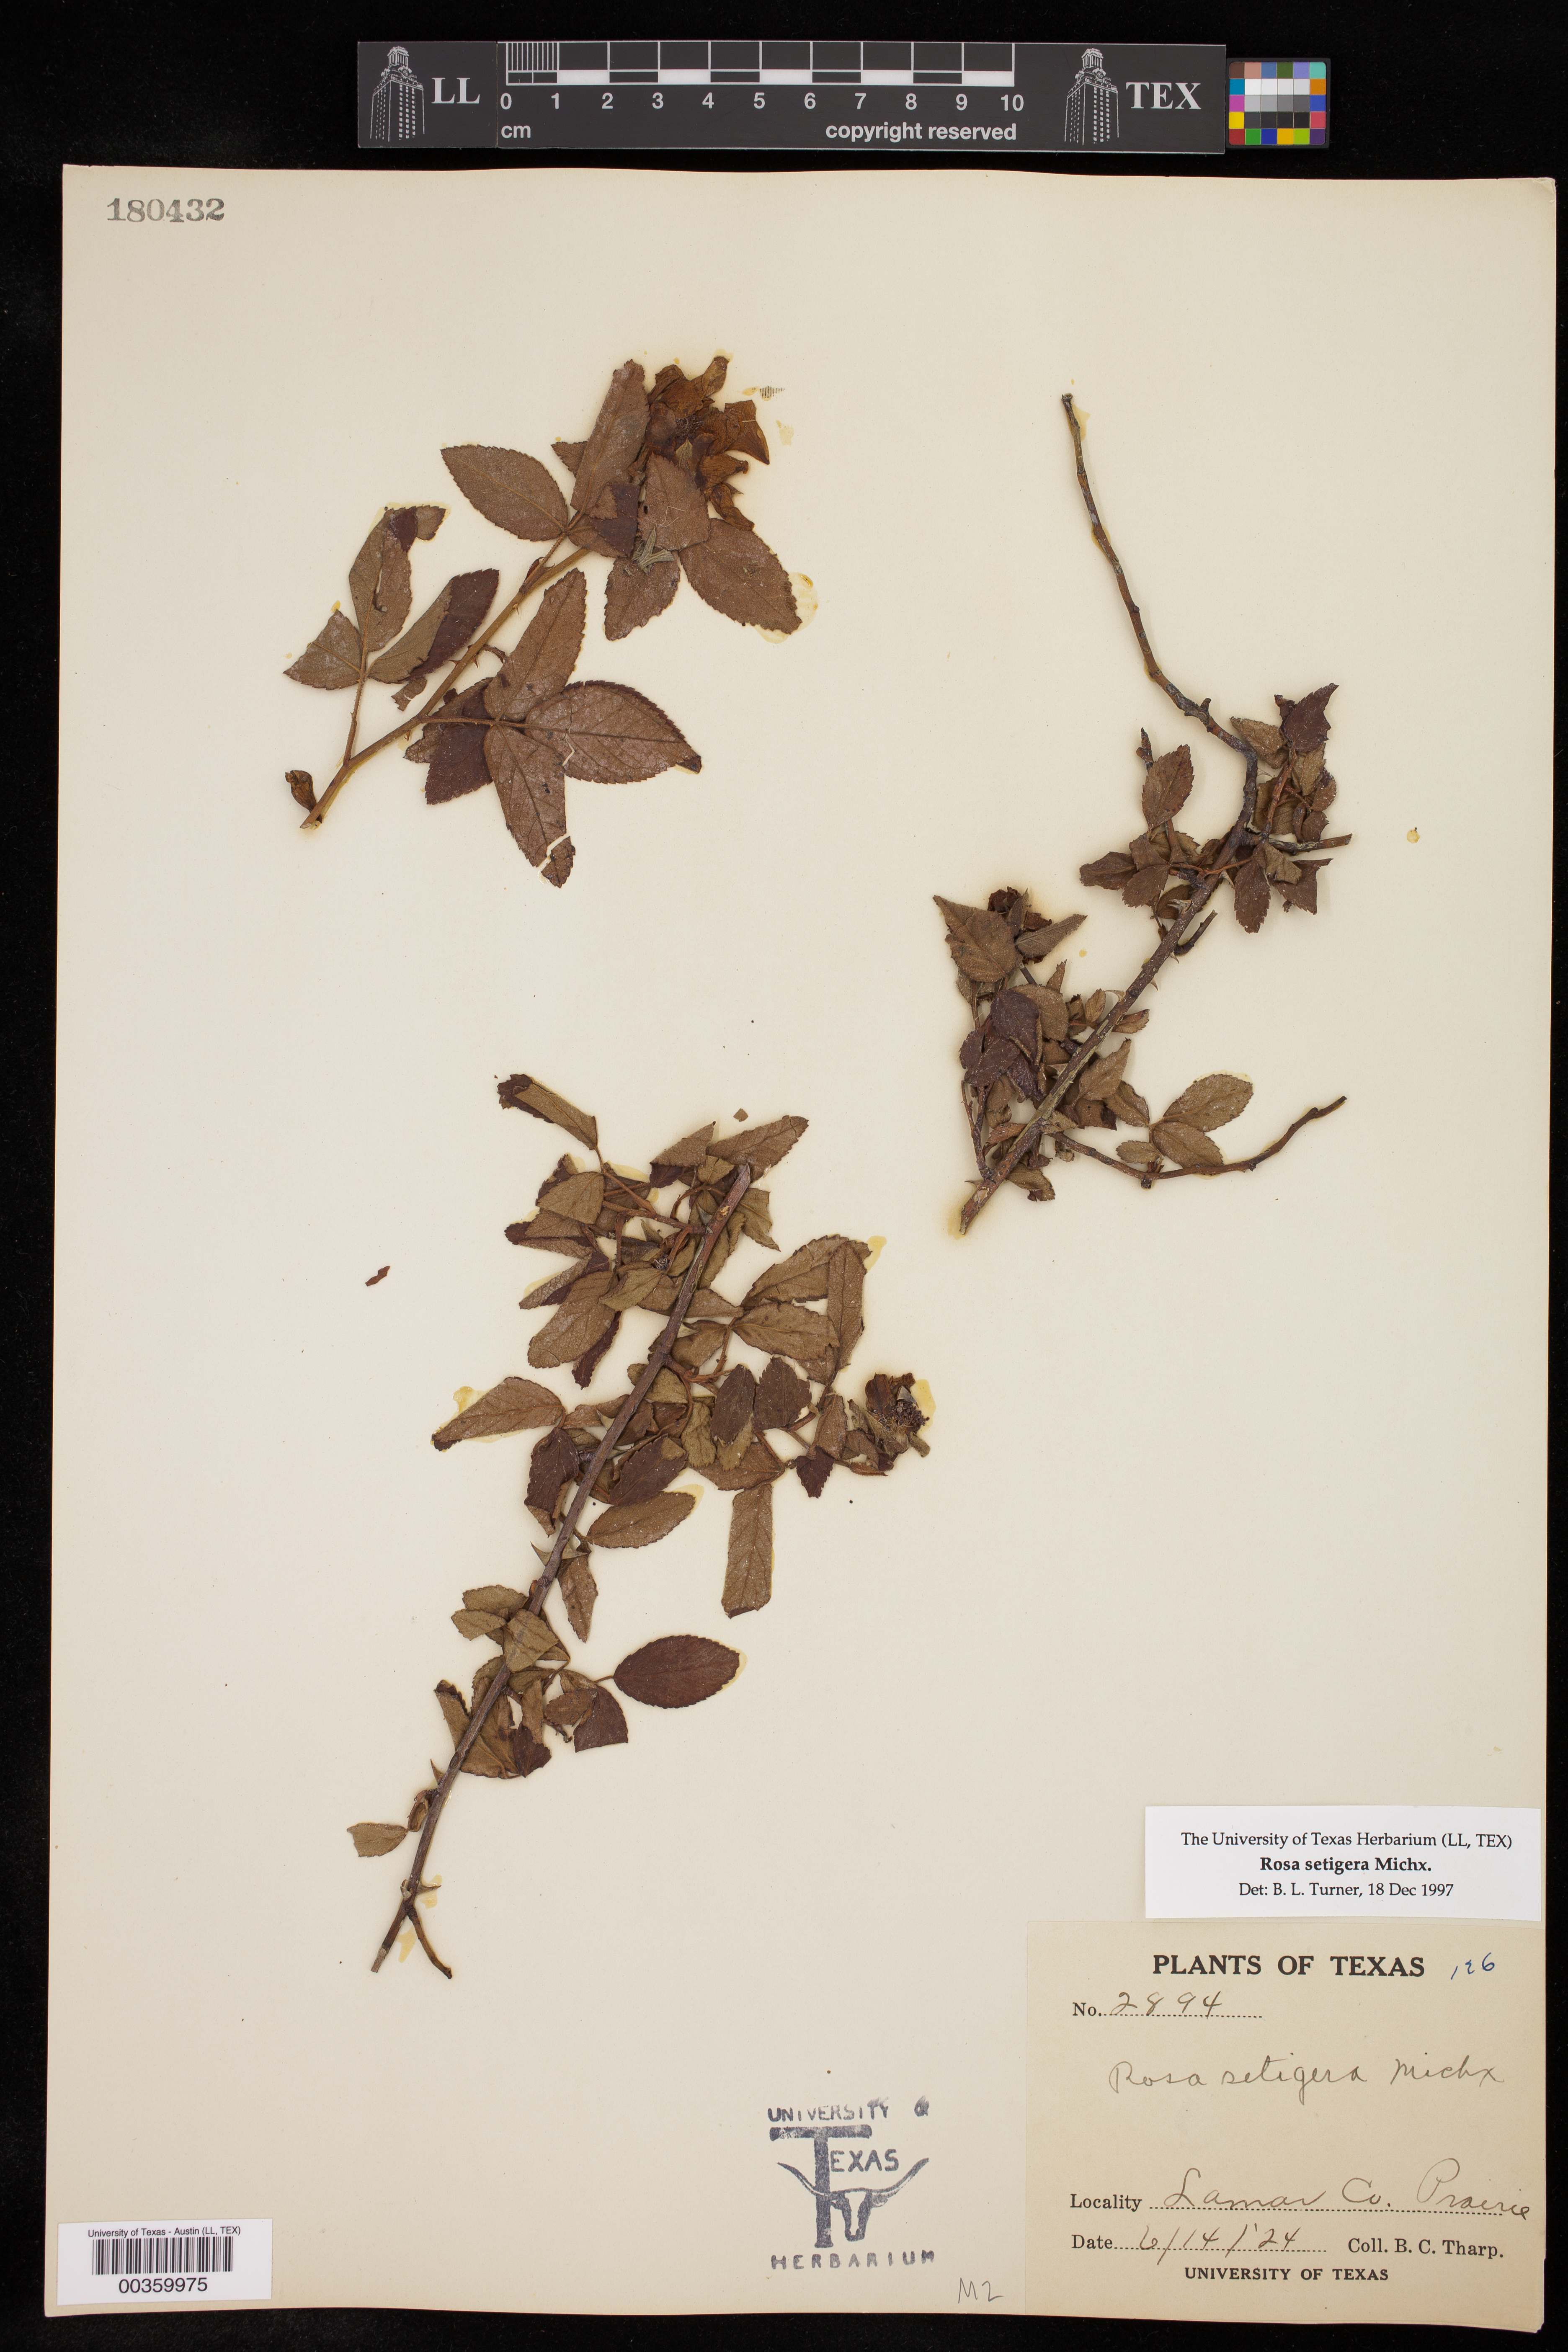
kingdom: Plantae
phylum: Tracheophyta
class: Magnoliopsida
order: Rosales
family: Rosaceae
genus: Rosa
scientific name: Rosa setigera
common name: Prairie rose
